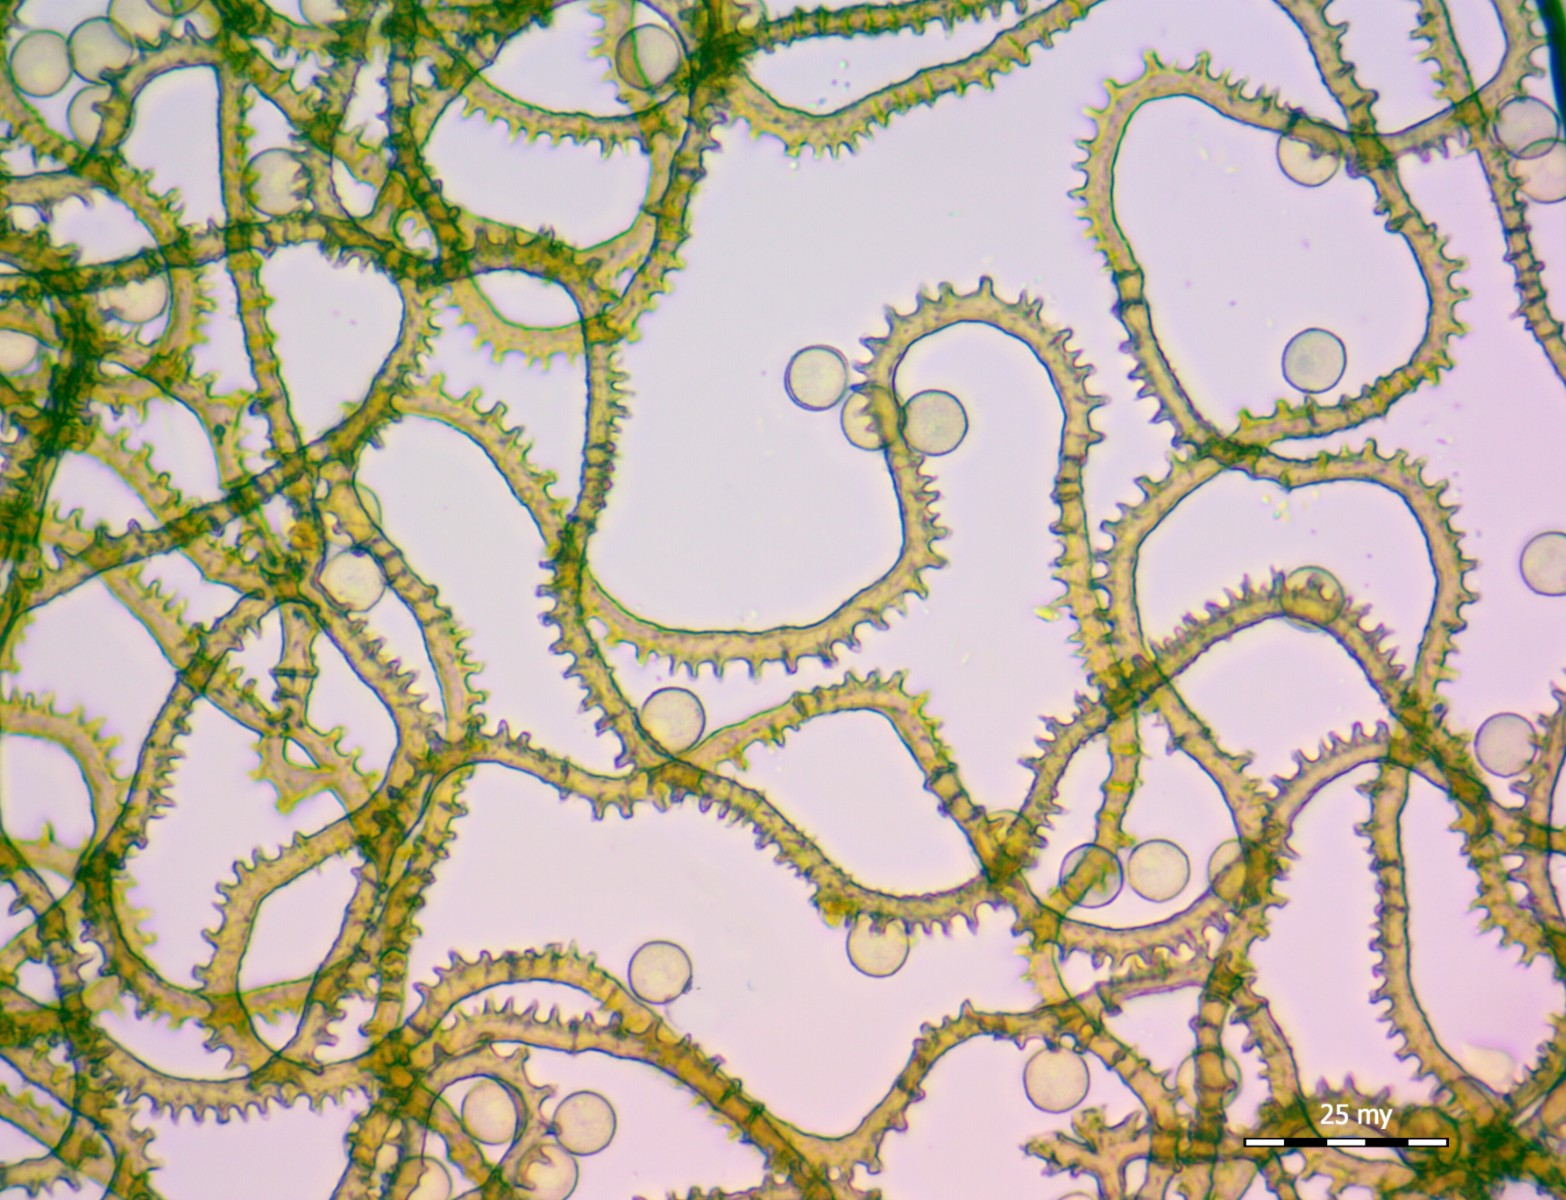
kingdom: Protozoa
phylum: Mycetozoa
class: Myxomycetes
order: Trichiales
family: Arcyriaceae
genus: Arcyria
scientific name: Arcyria affinis
